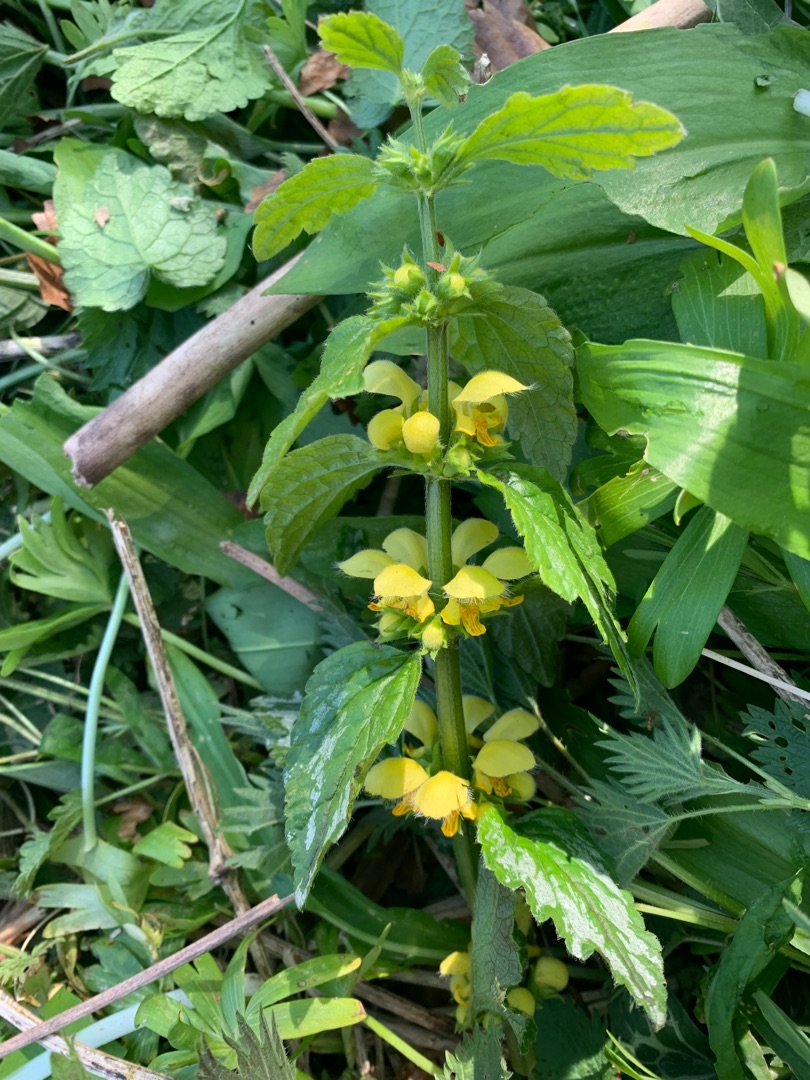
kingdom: Plantae
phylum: Tracheophyta
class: Magnoliopsida
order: Lamiales
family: Lamiaceae
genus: Lamium
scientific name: Lamium galeobdolon
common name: Guldnælde
